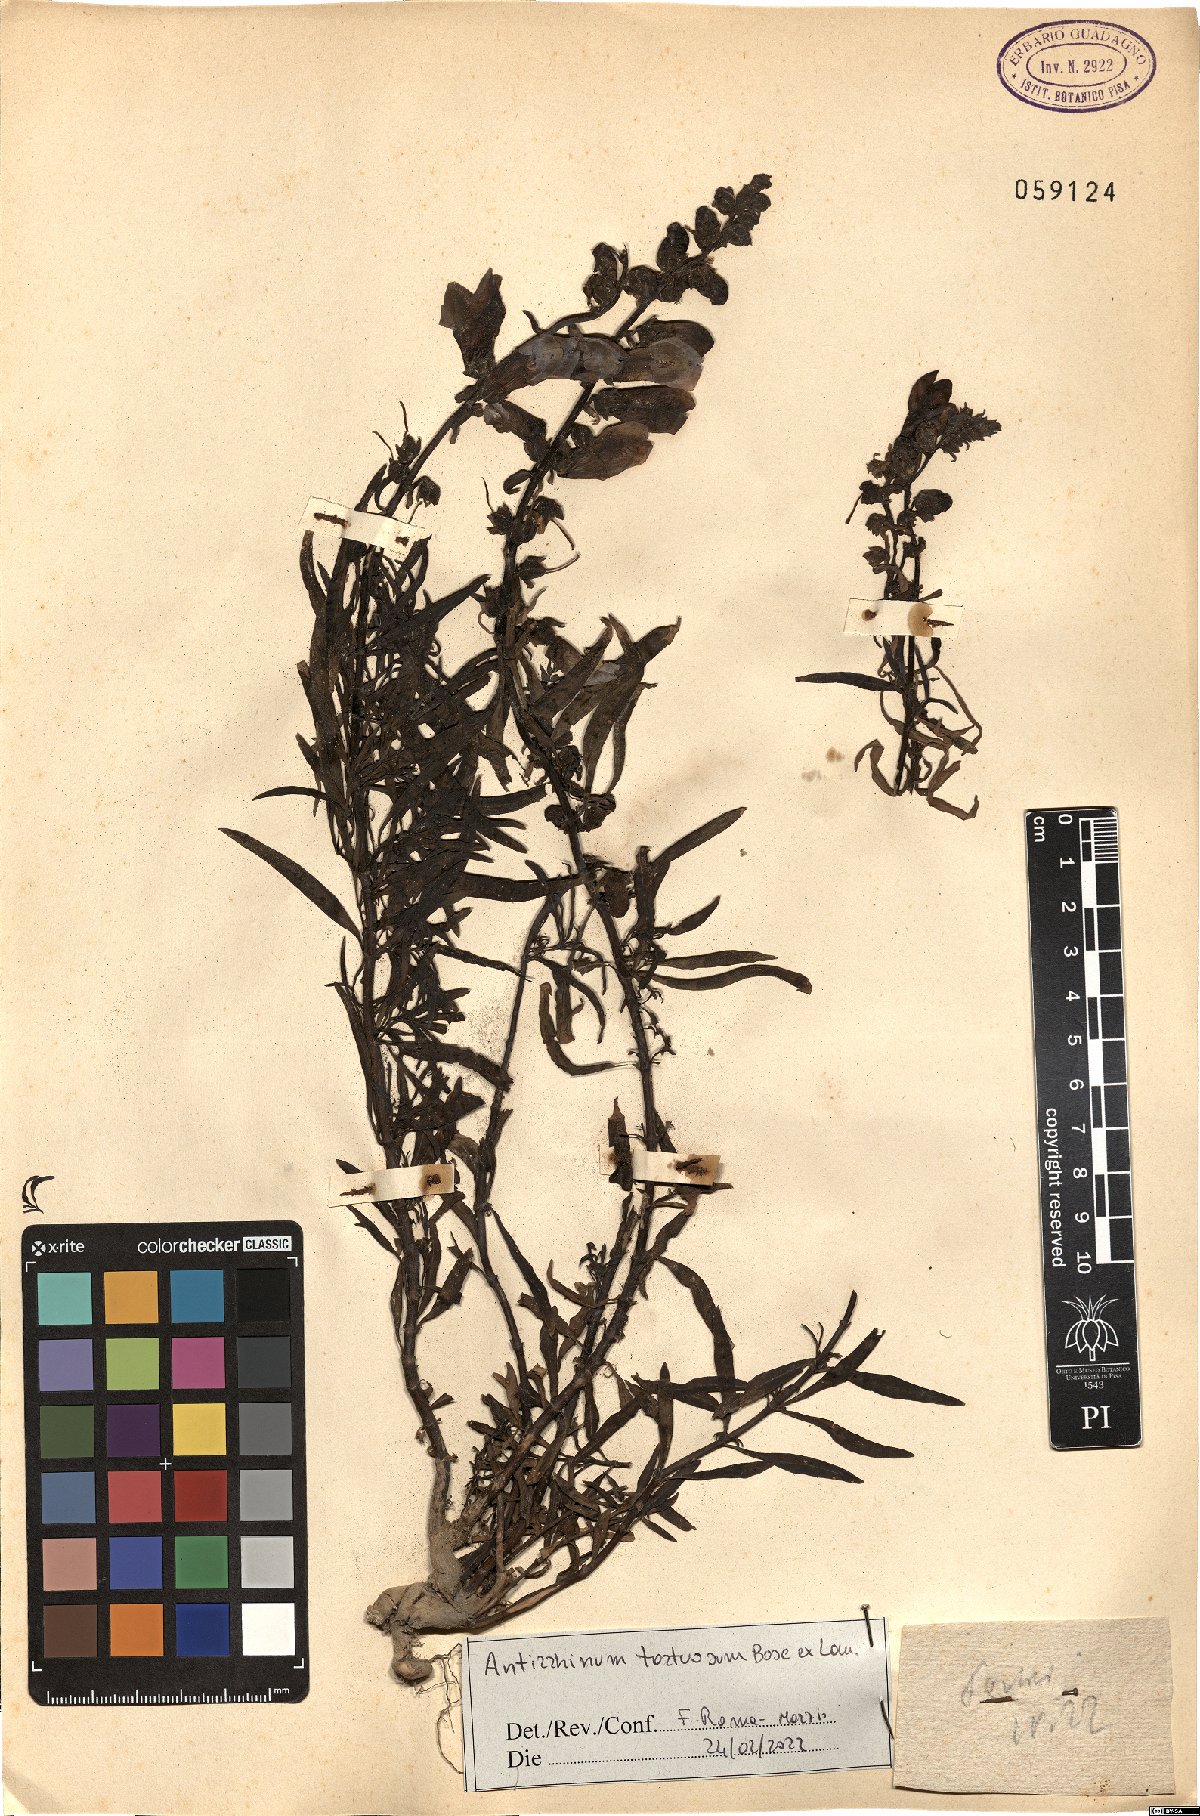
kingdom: Plantae
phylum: Tracheophyta
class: Magnoliopsida
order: Lamiales
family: Plantaginaceae
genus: Antirrhinum
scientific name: Antirrhinum tortuosum
